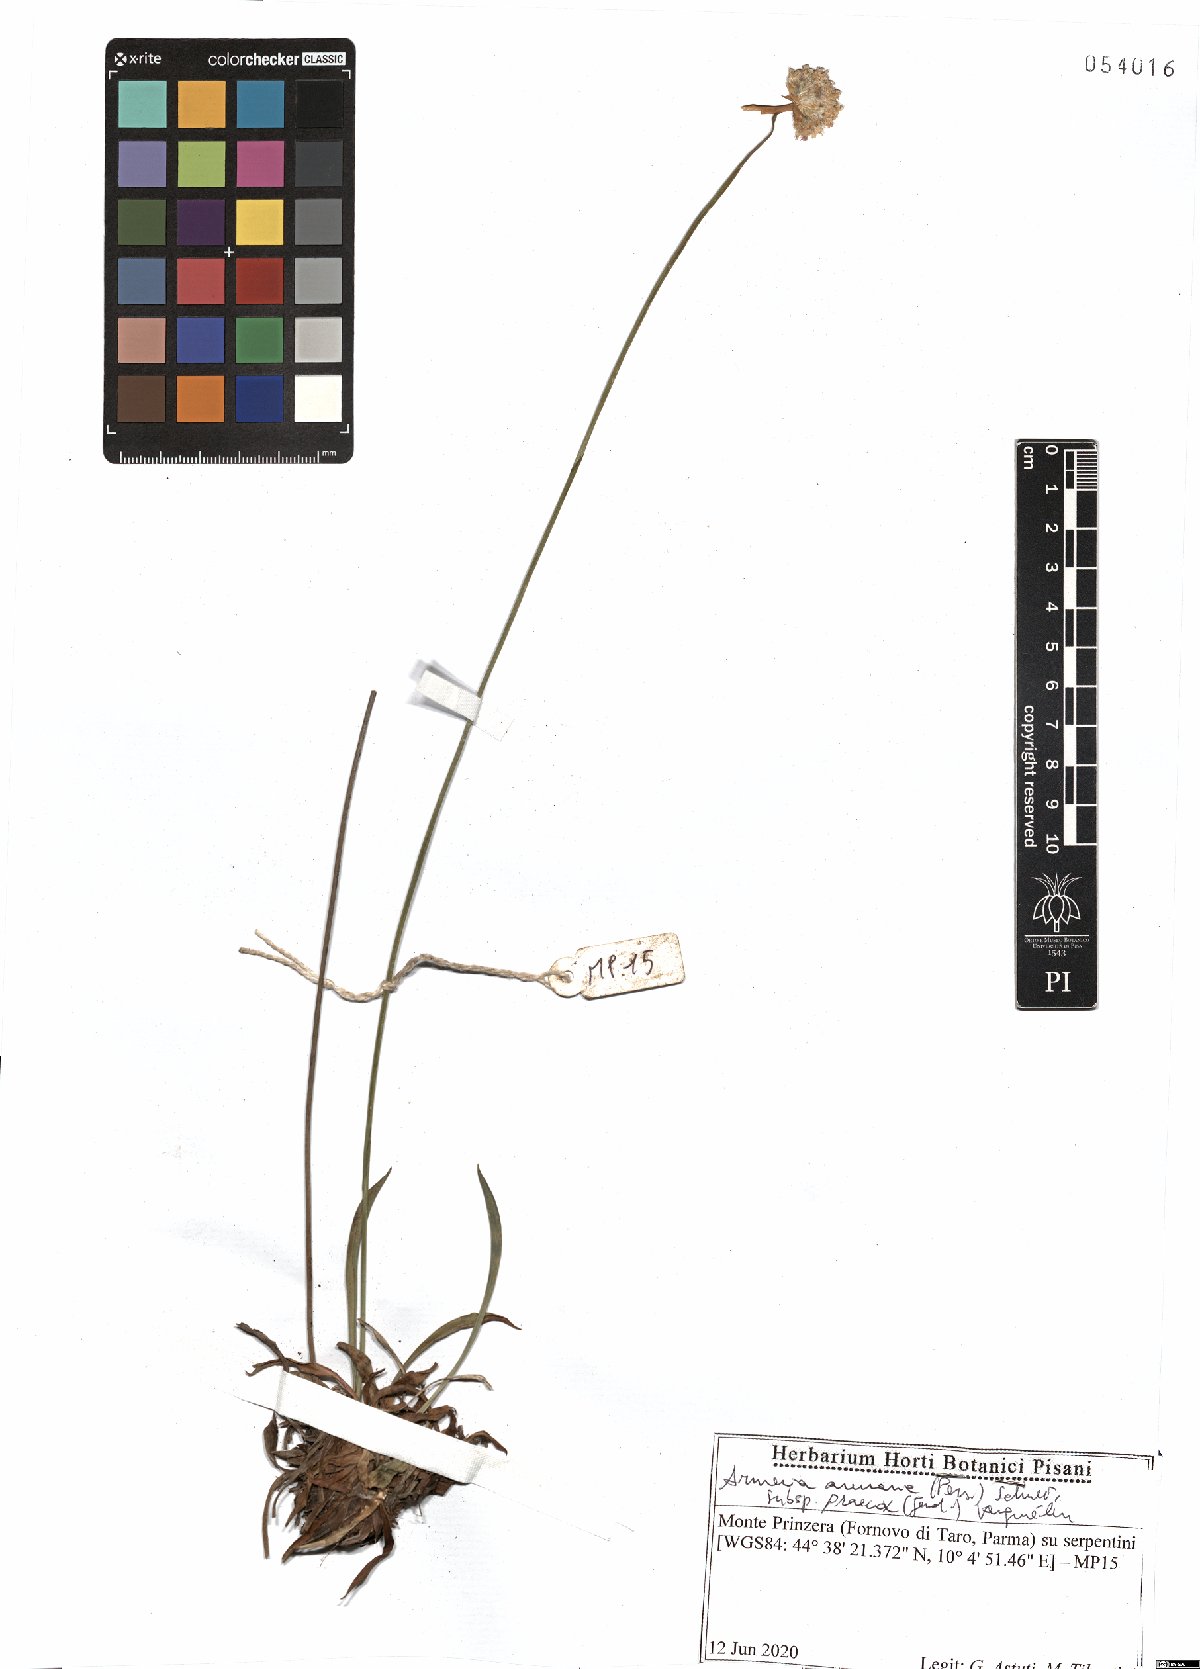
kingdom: Plantae
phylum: Tracheophyta
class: Magnoliopsida
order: Caryophyllales
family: Plumbaginaceae
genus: Armeria
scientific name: Armeria arenaria
